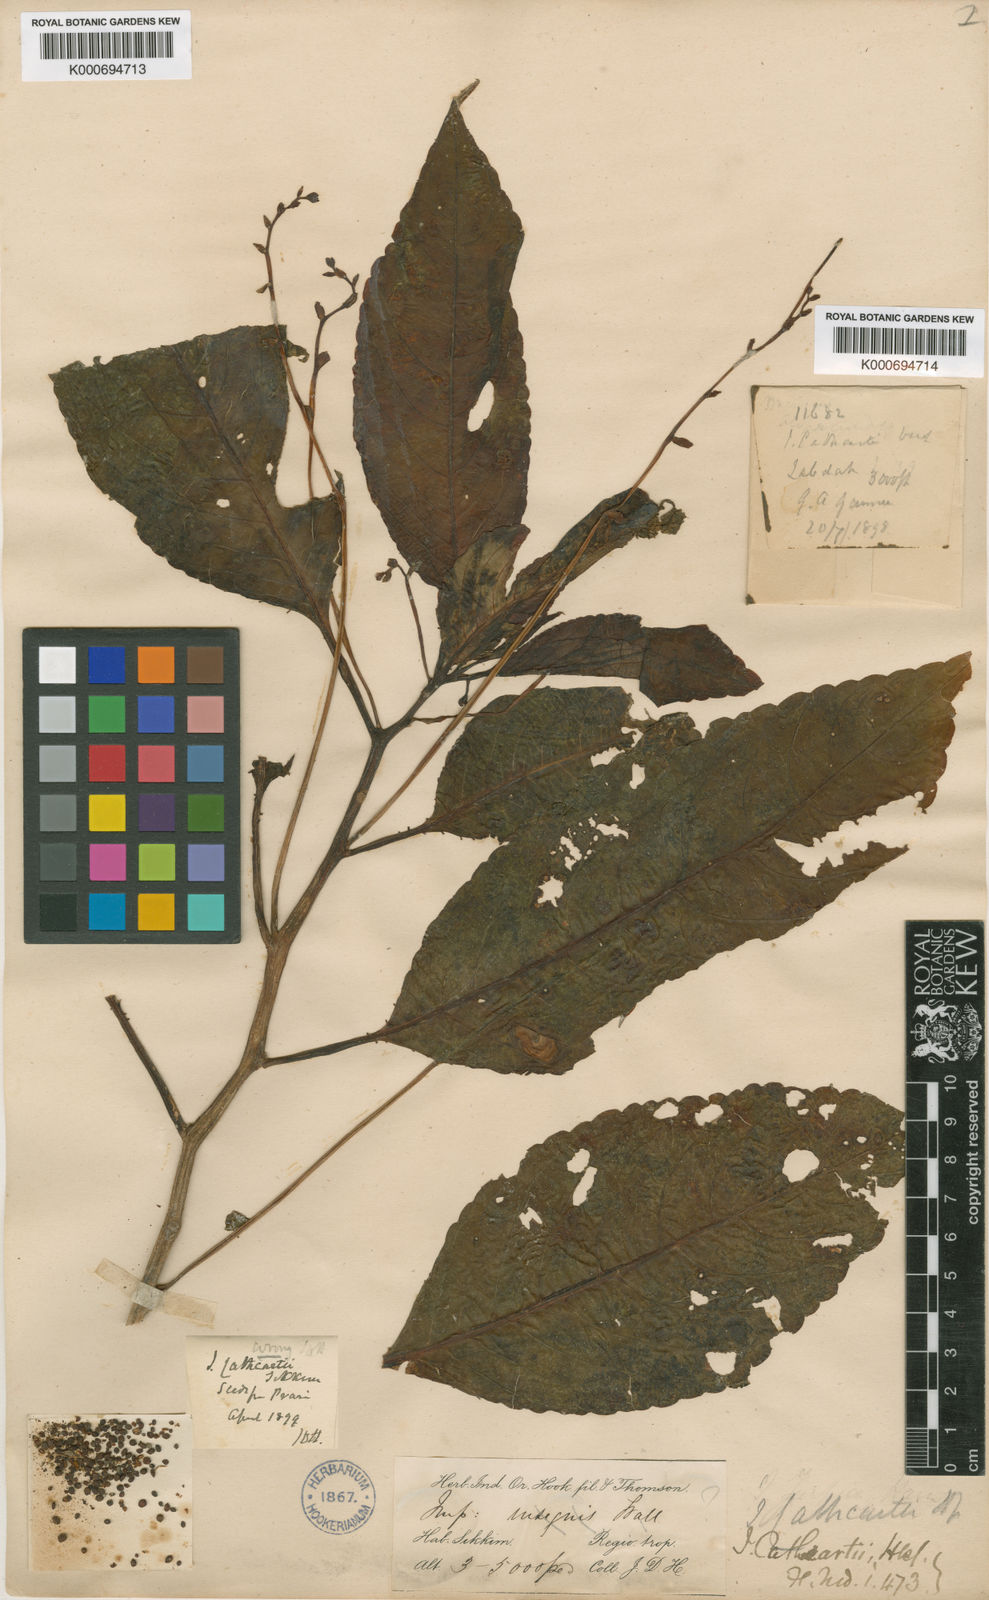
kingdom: Plantae
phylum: Tracheophyta
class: Magnoliopsida
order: Ericales
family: Balsaminaceae
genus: Impatiens
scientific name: Impatiens cathcartii
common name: J. f. cathcart's balsam
